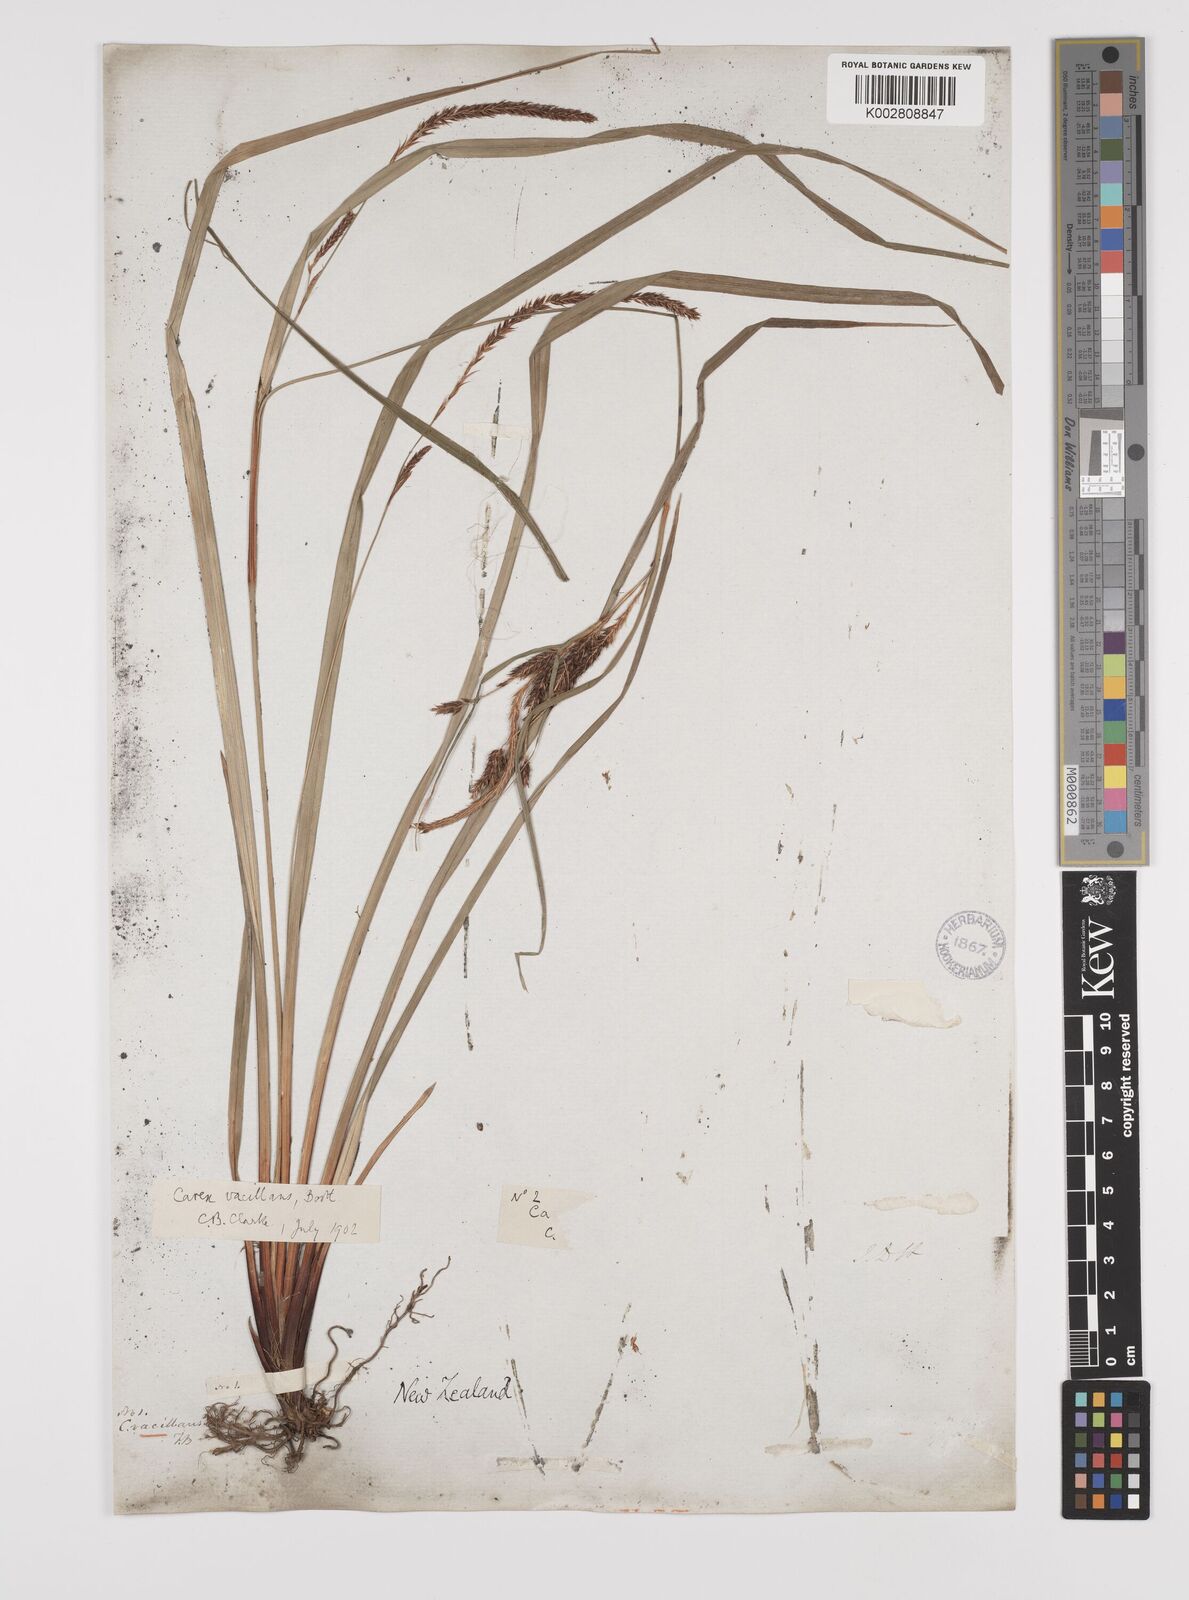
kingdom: Plantae
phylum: Tracheophyta
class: Liliopsida
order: Poales
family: Cyperaceae
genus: Carex
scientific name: Carex spinirostris
